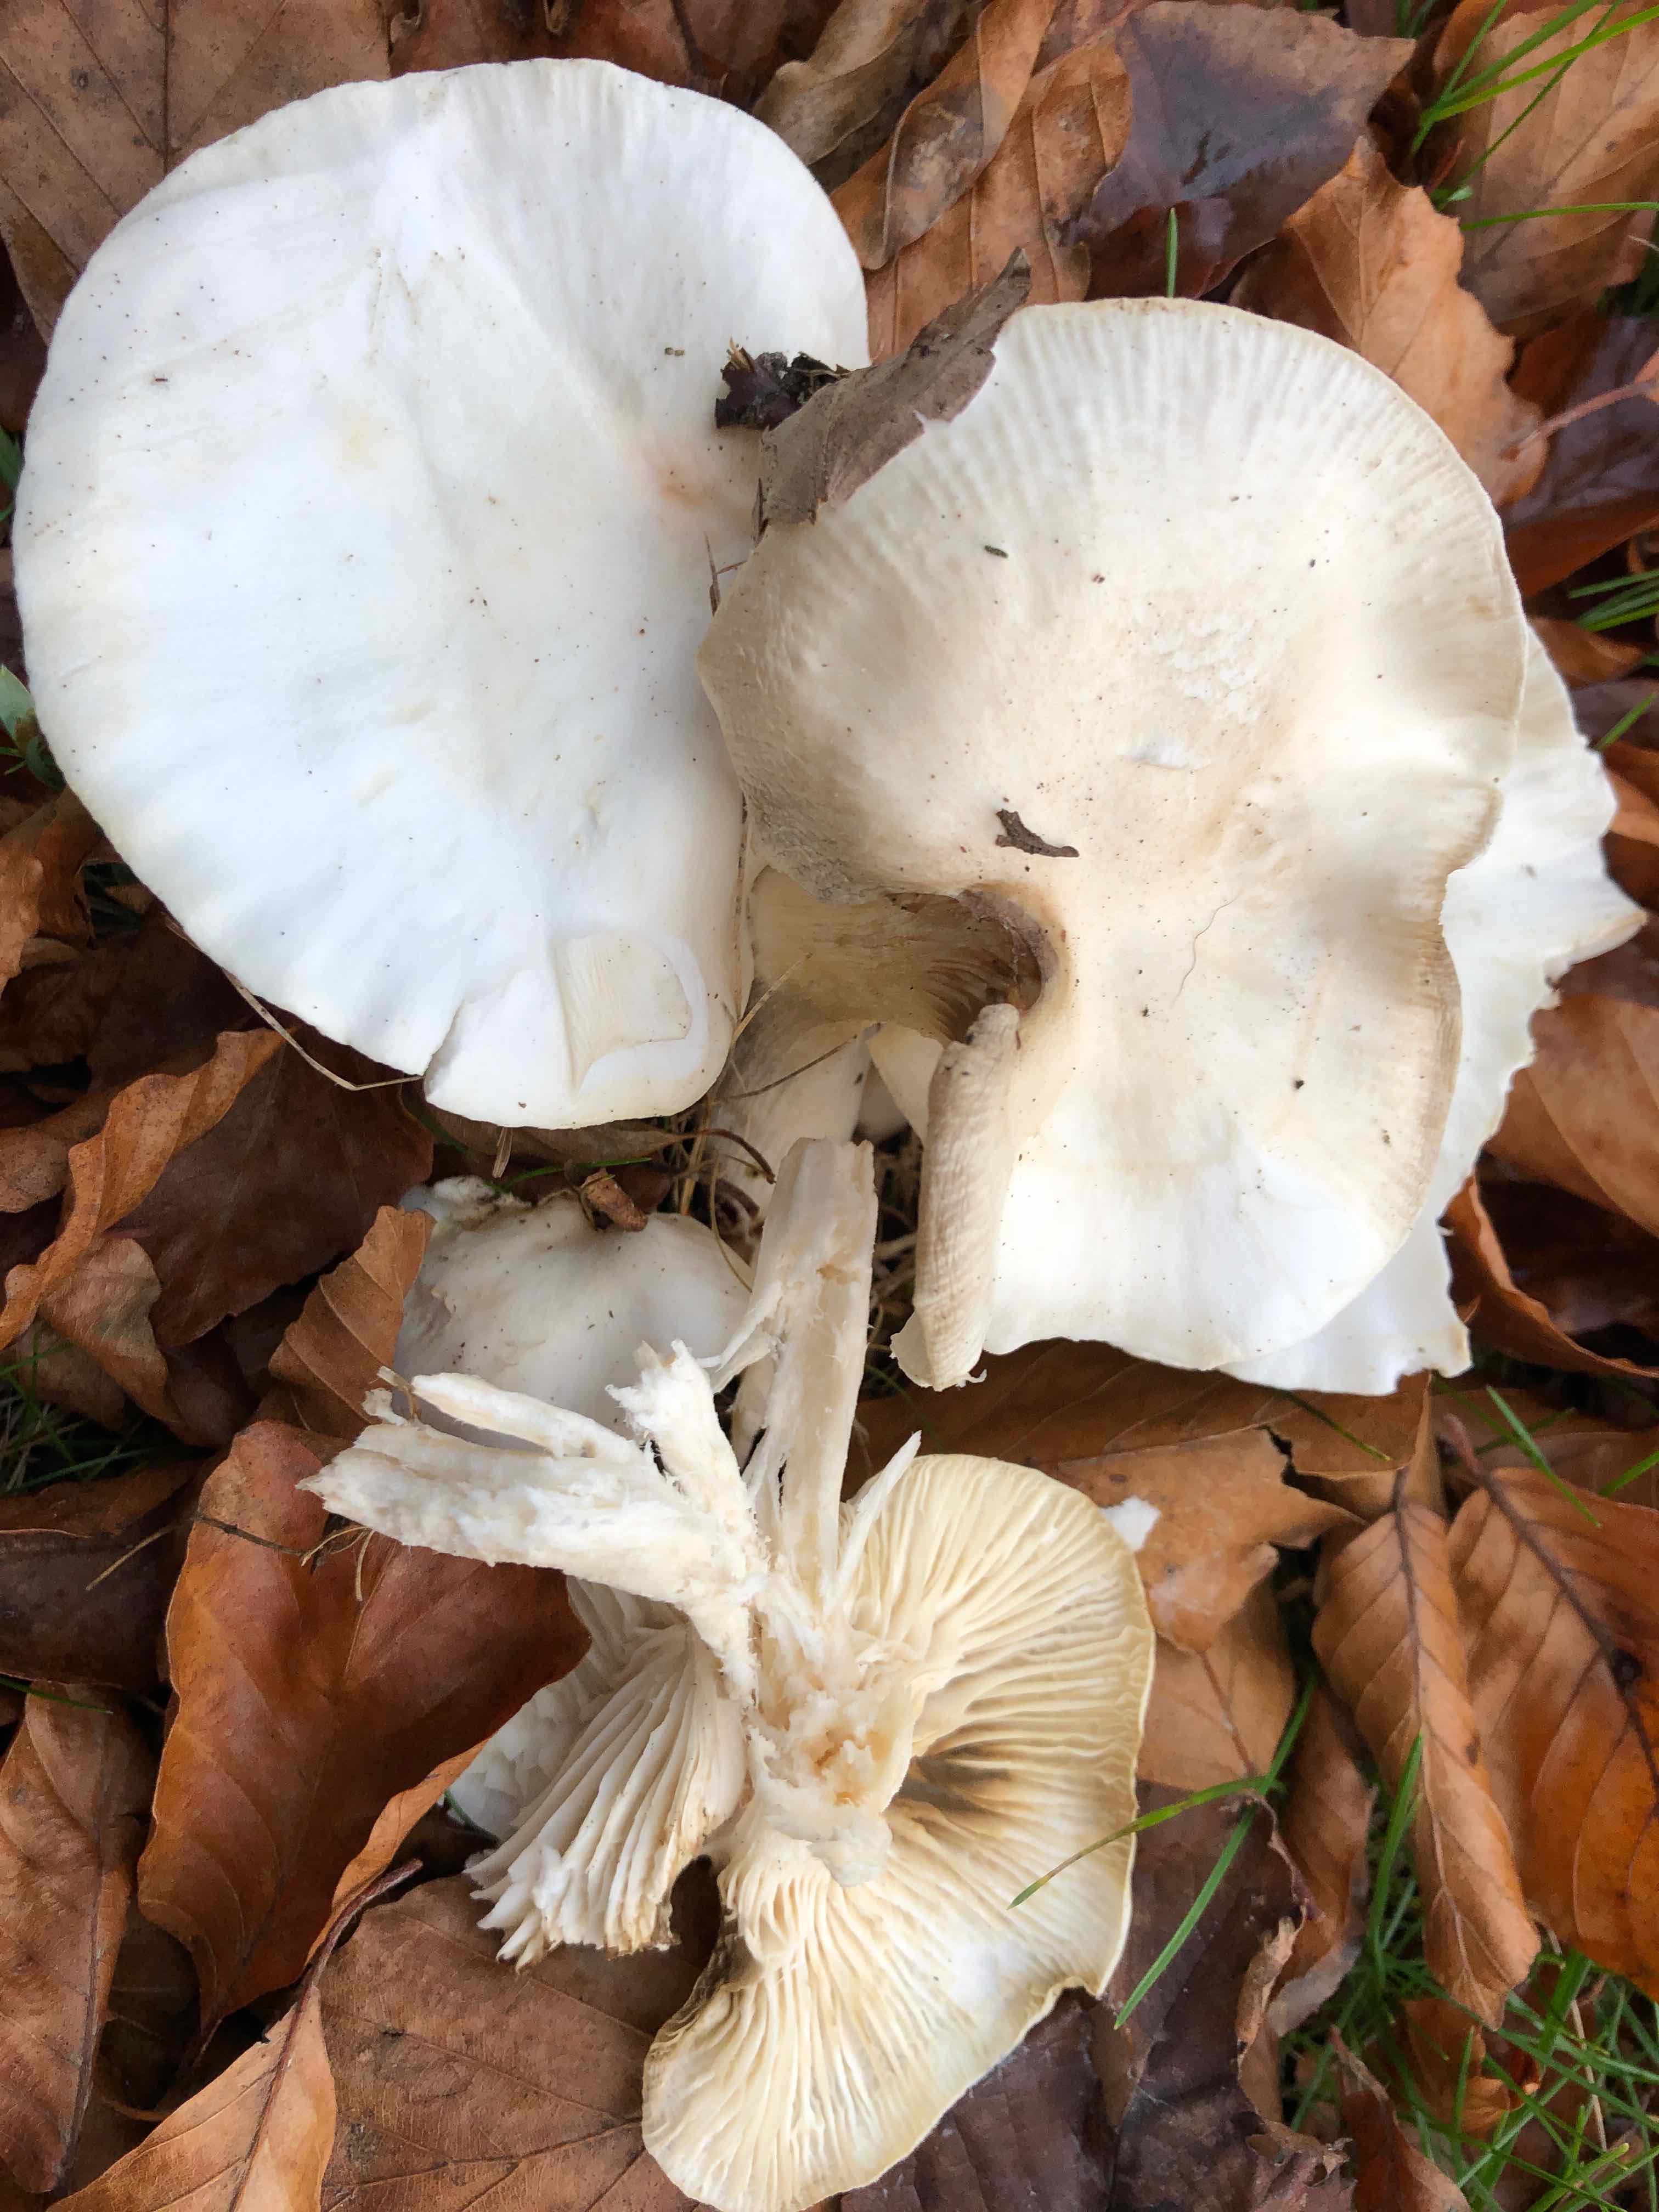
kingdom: Fungi
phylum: Basidiomycota
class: Agaricomycetes
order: Agaricales
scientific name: Agaricales
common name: champignonordenen
